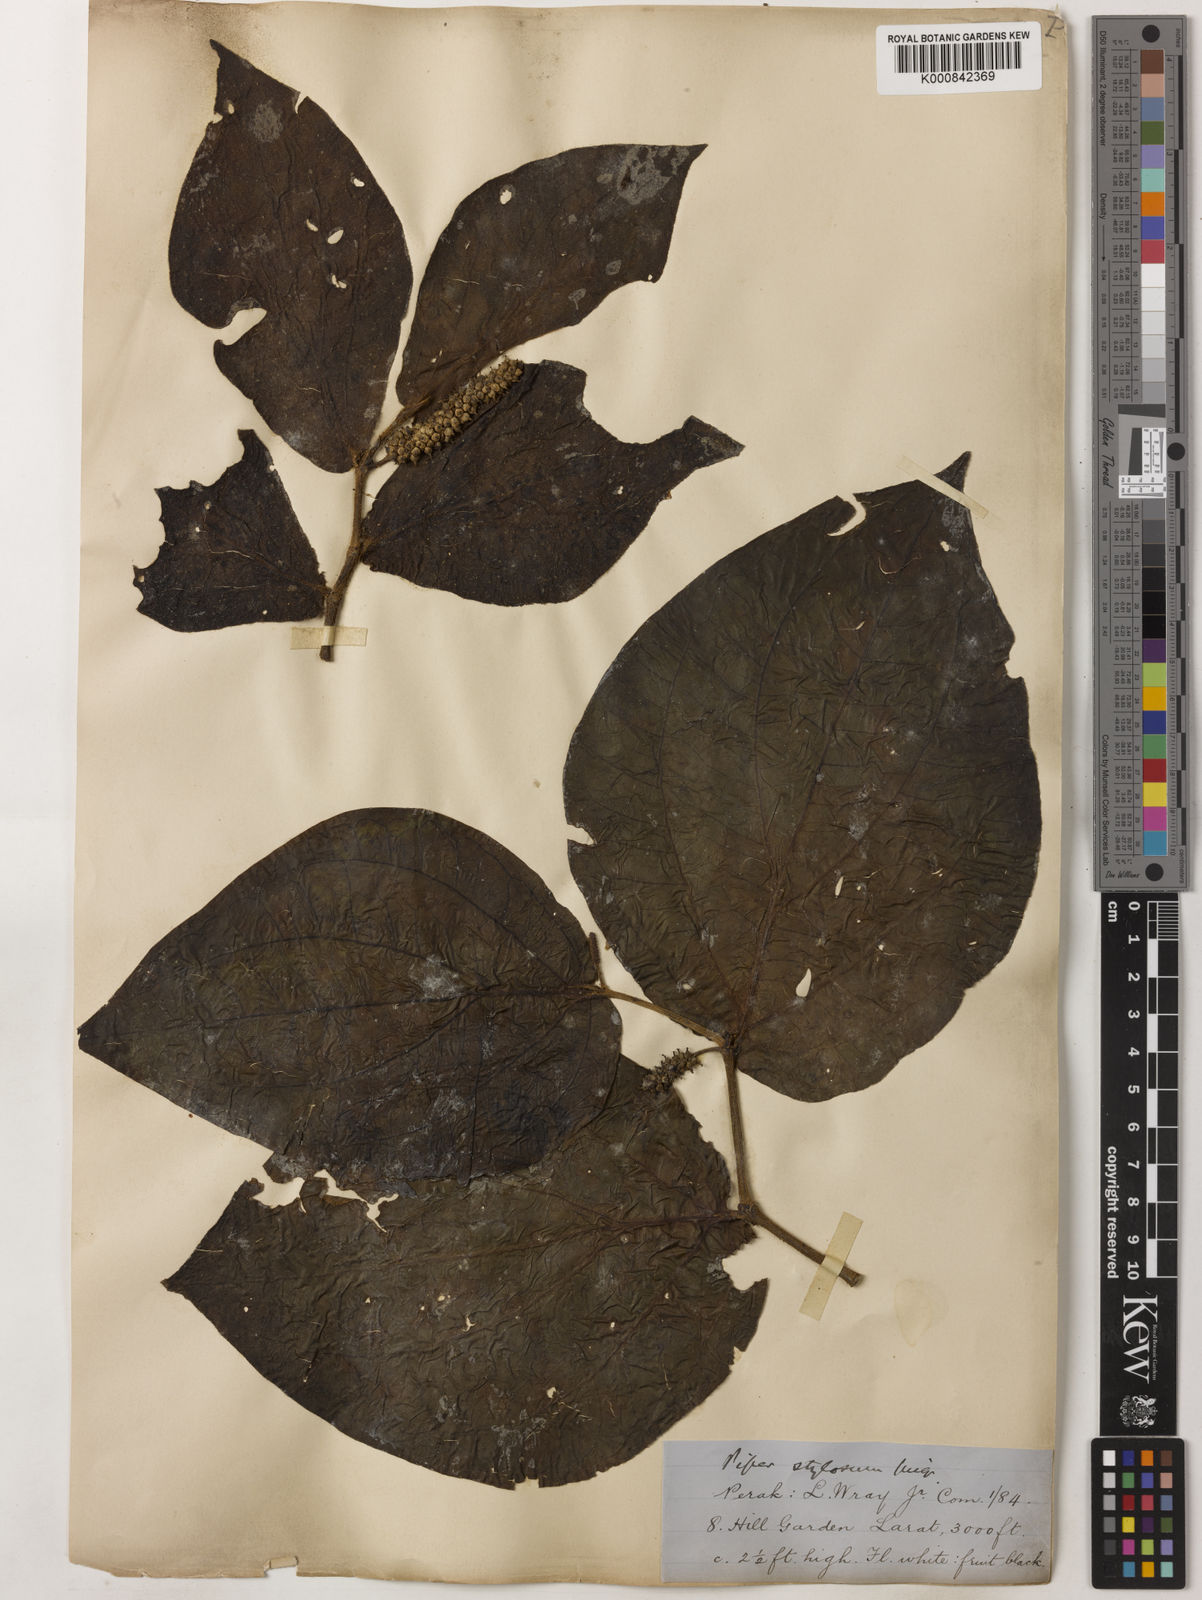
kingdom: Plantae
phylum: Tracheophyta
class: Magnoliopsida
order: Piperales
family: Piperaceae
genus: Piper
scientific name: Piper rostratum
